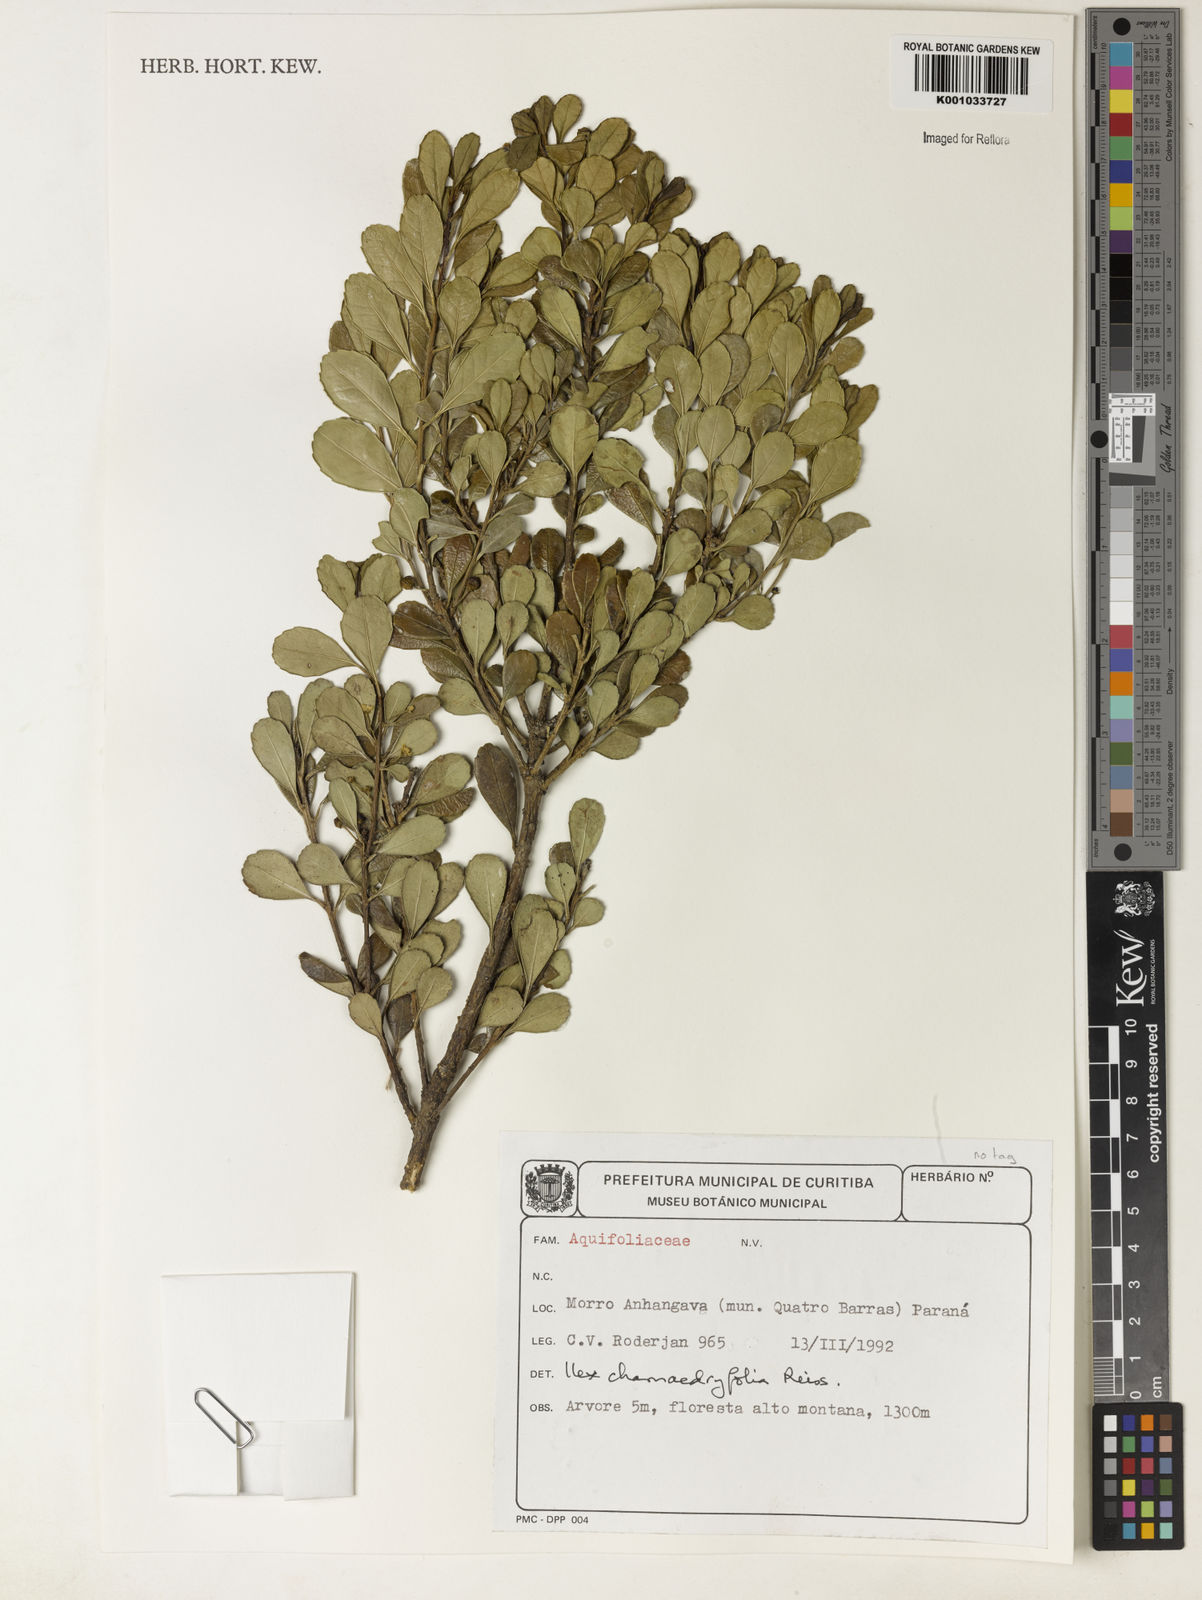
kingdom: Plantae
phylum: Tracheophyta
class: Magnoliopsida
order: Aquifoliales
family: Aquifoliaceae
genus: Ilex
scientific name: Ilex chamaedryfolia
